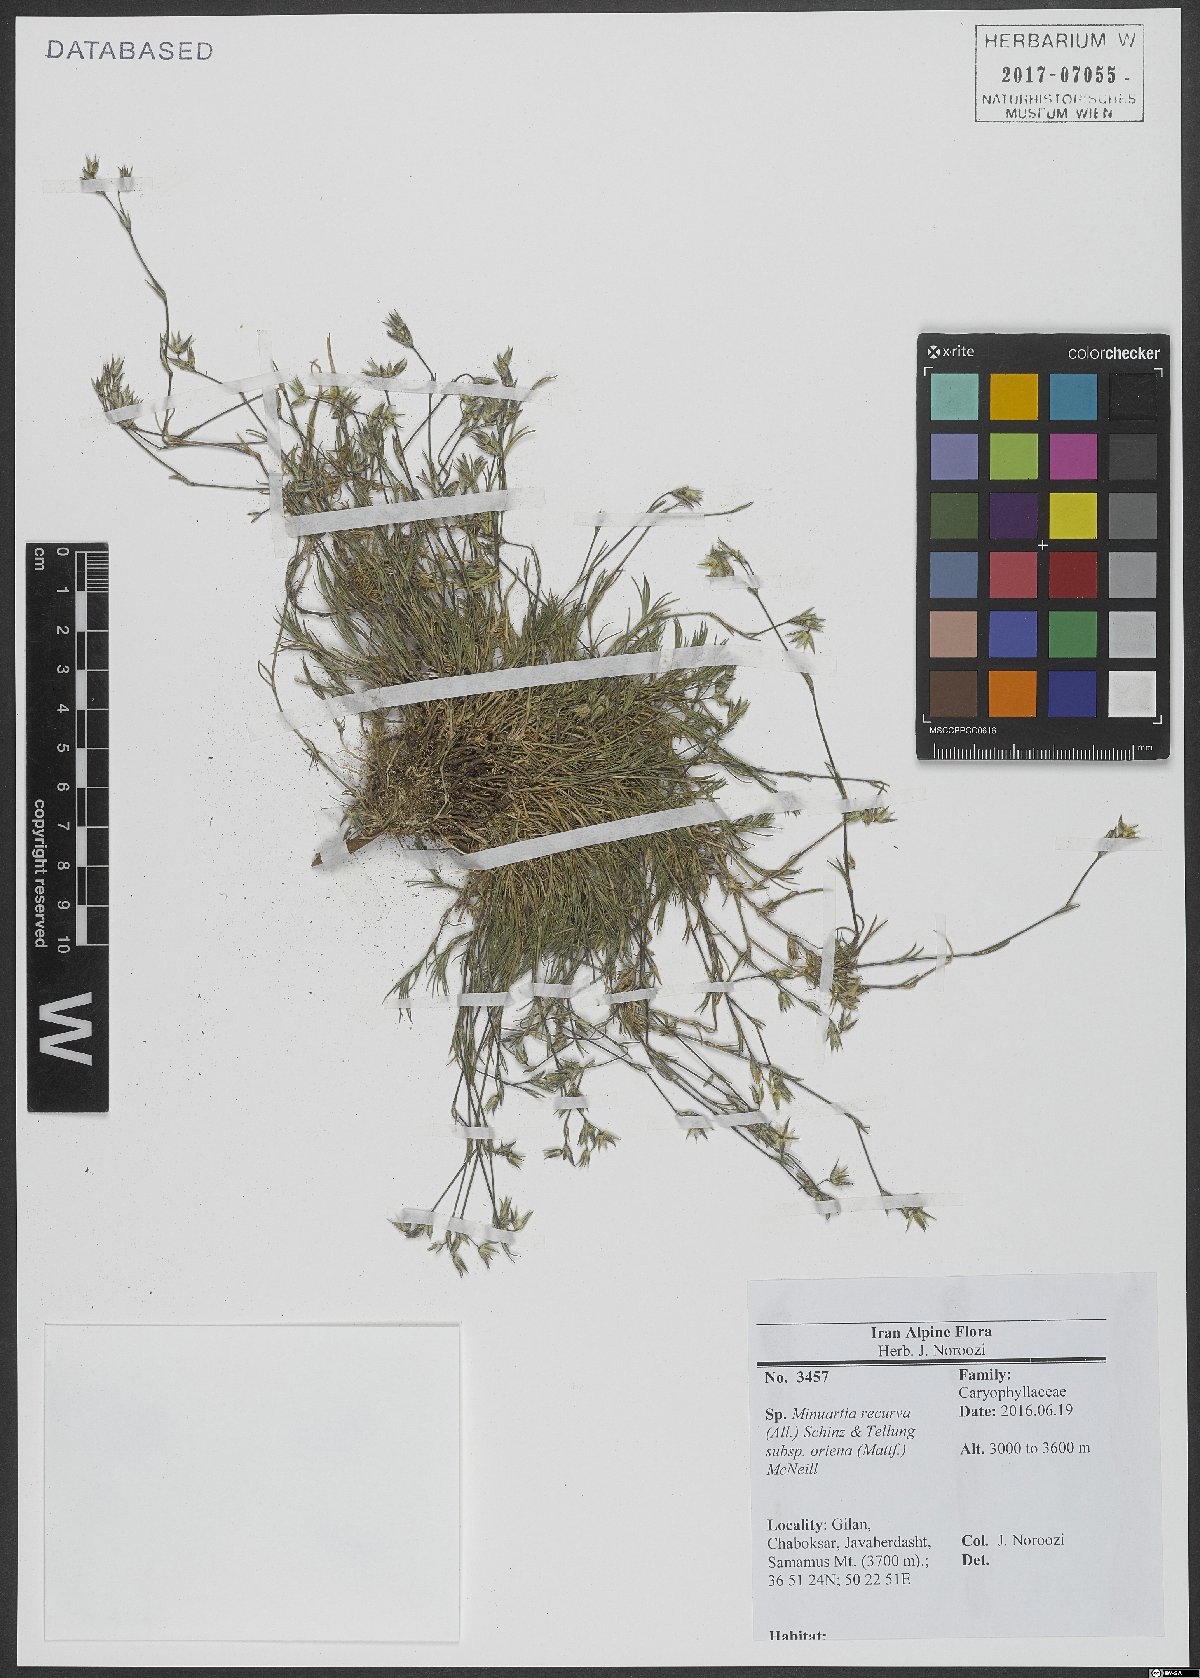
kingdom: Plantae
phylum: Tracheophyta
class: Magnoliopsida
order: Caryophyllales
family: Caryophyllaceae
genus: Minuartia
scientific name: Minuartia hirsuta
